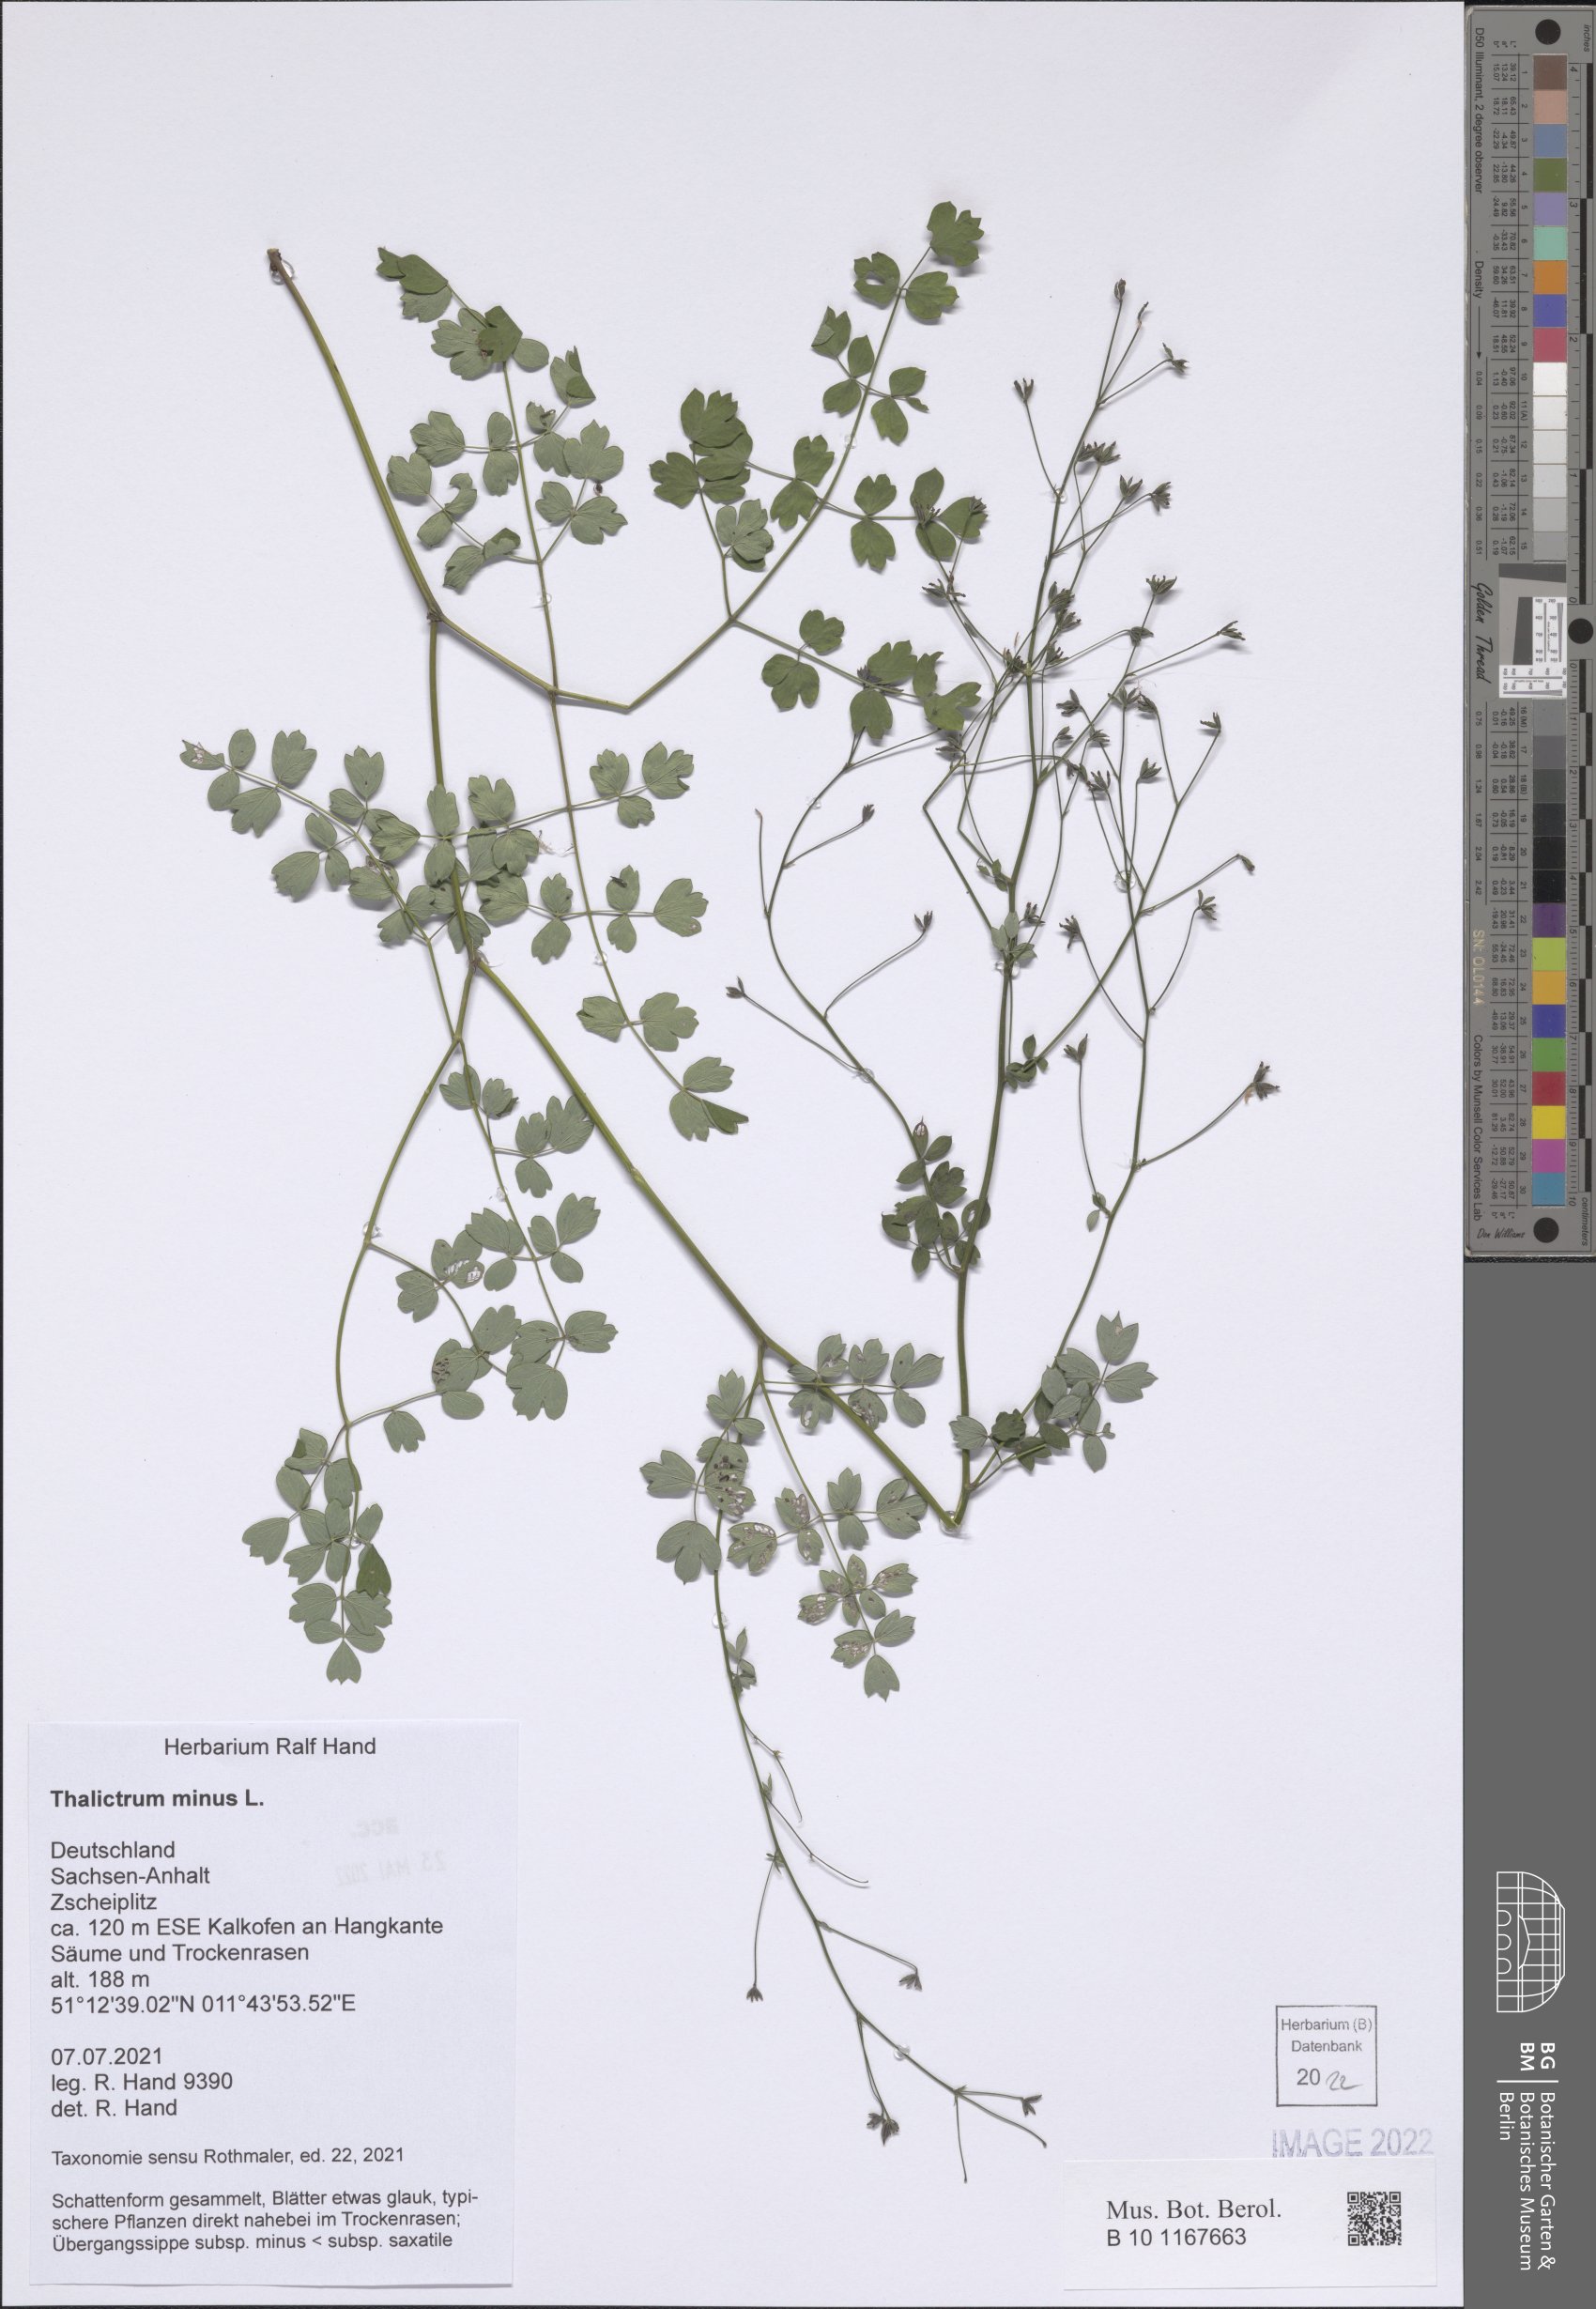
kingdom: Plantae
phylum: Tracheophyta
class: Magnoliopsida
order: Ranunculales
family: Ranunculaceae
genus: Thalictrum
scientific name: Thalictrum minus
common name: Lesser meadow-rue
